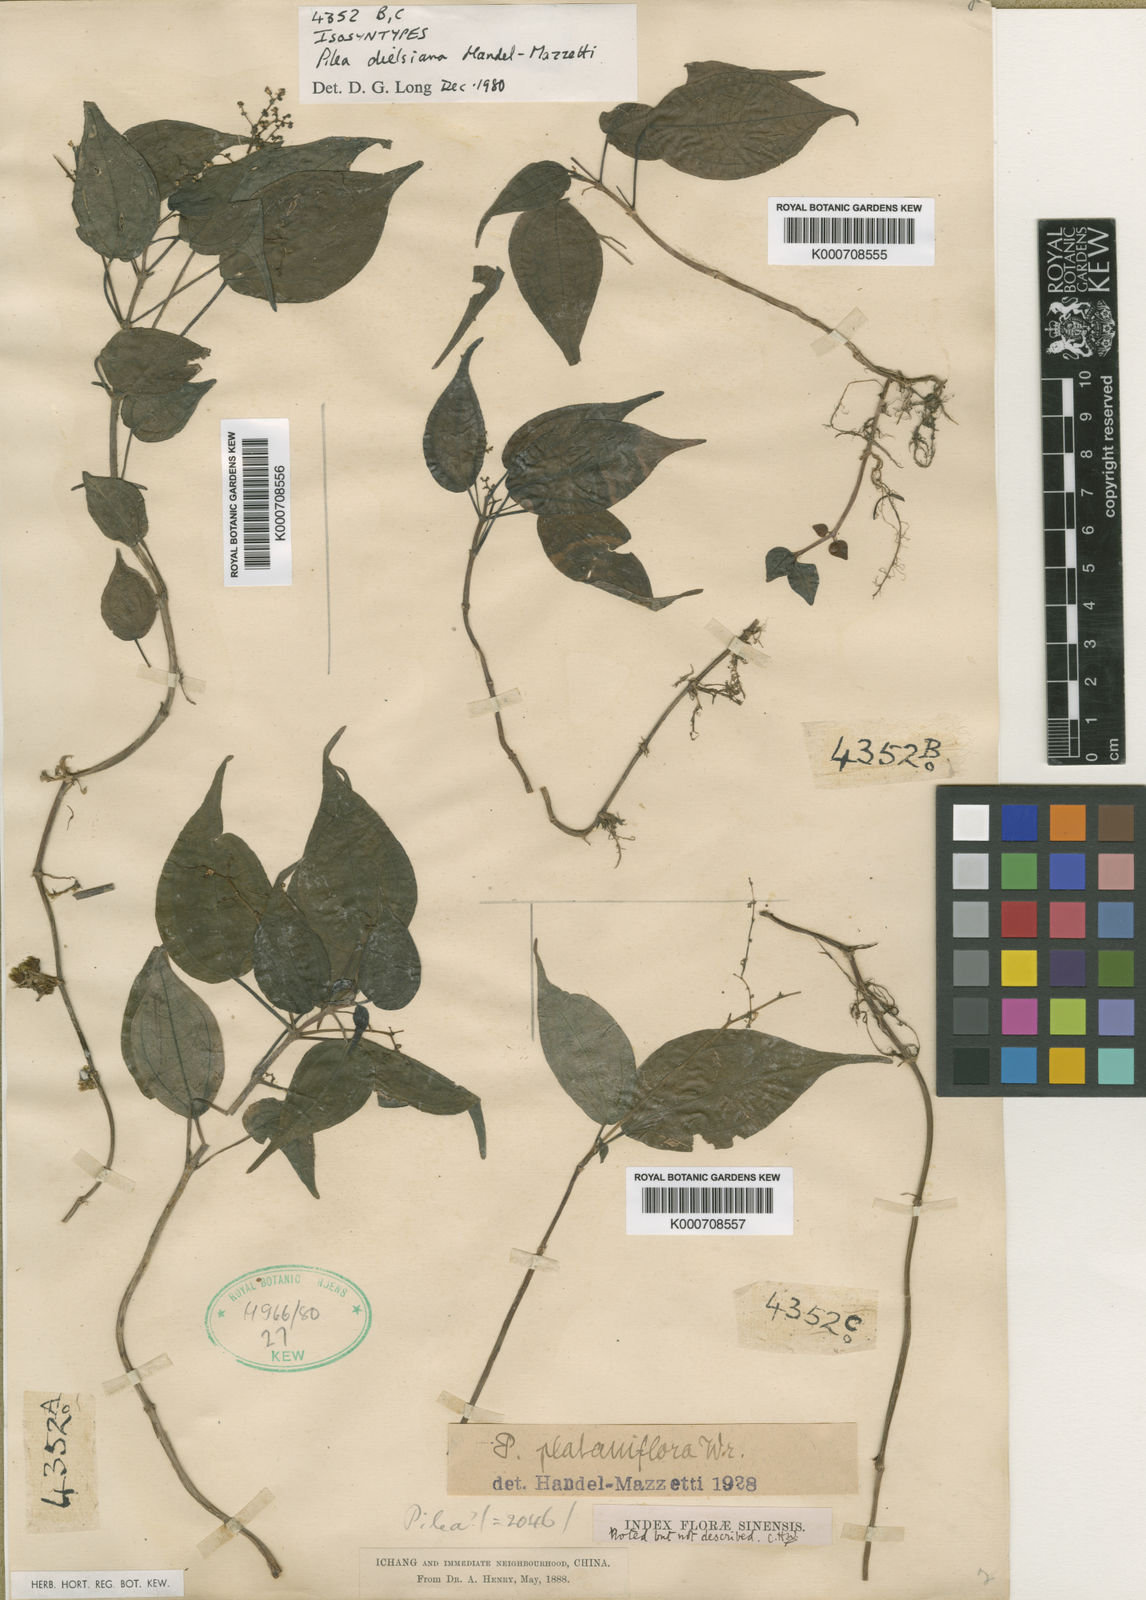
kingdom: Plantae
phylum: Tracheophyta
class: Magnoliopsida
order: Rosales
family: Urticaceae
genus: Pilea
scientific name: Pilea plataniflora
